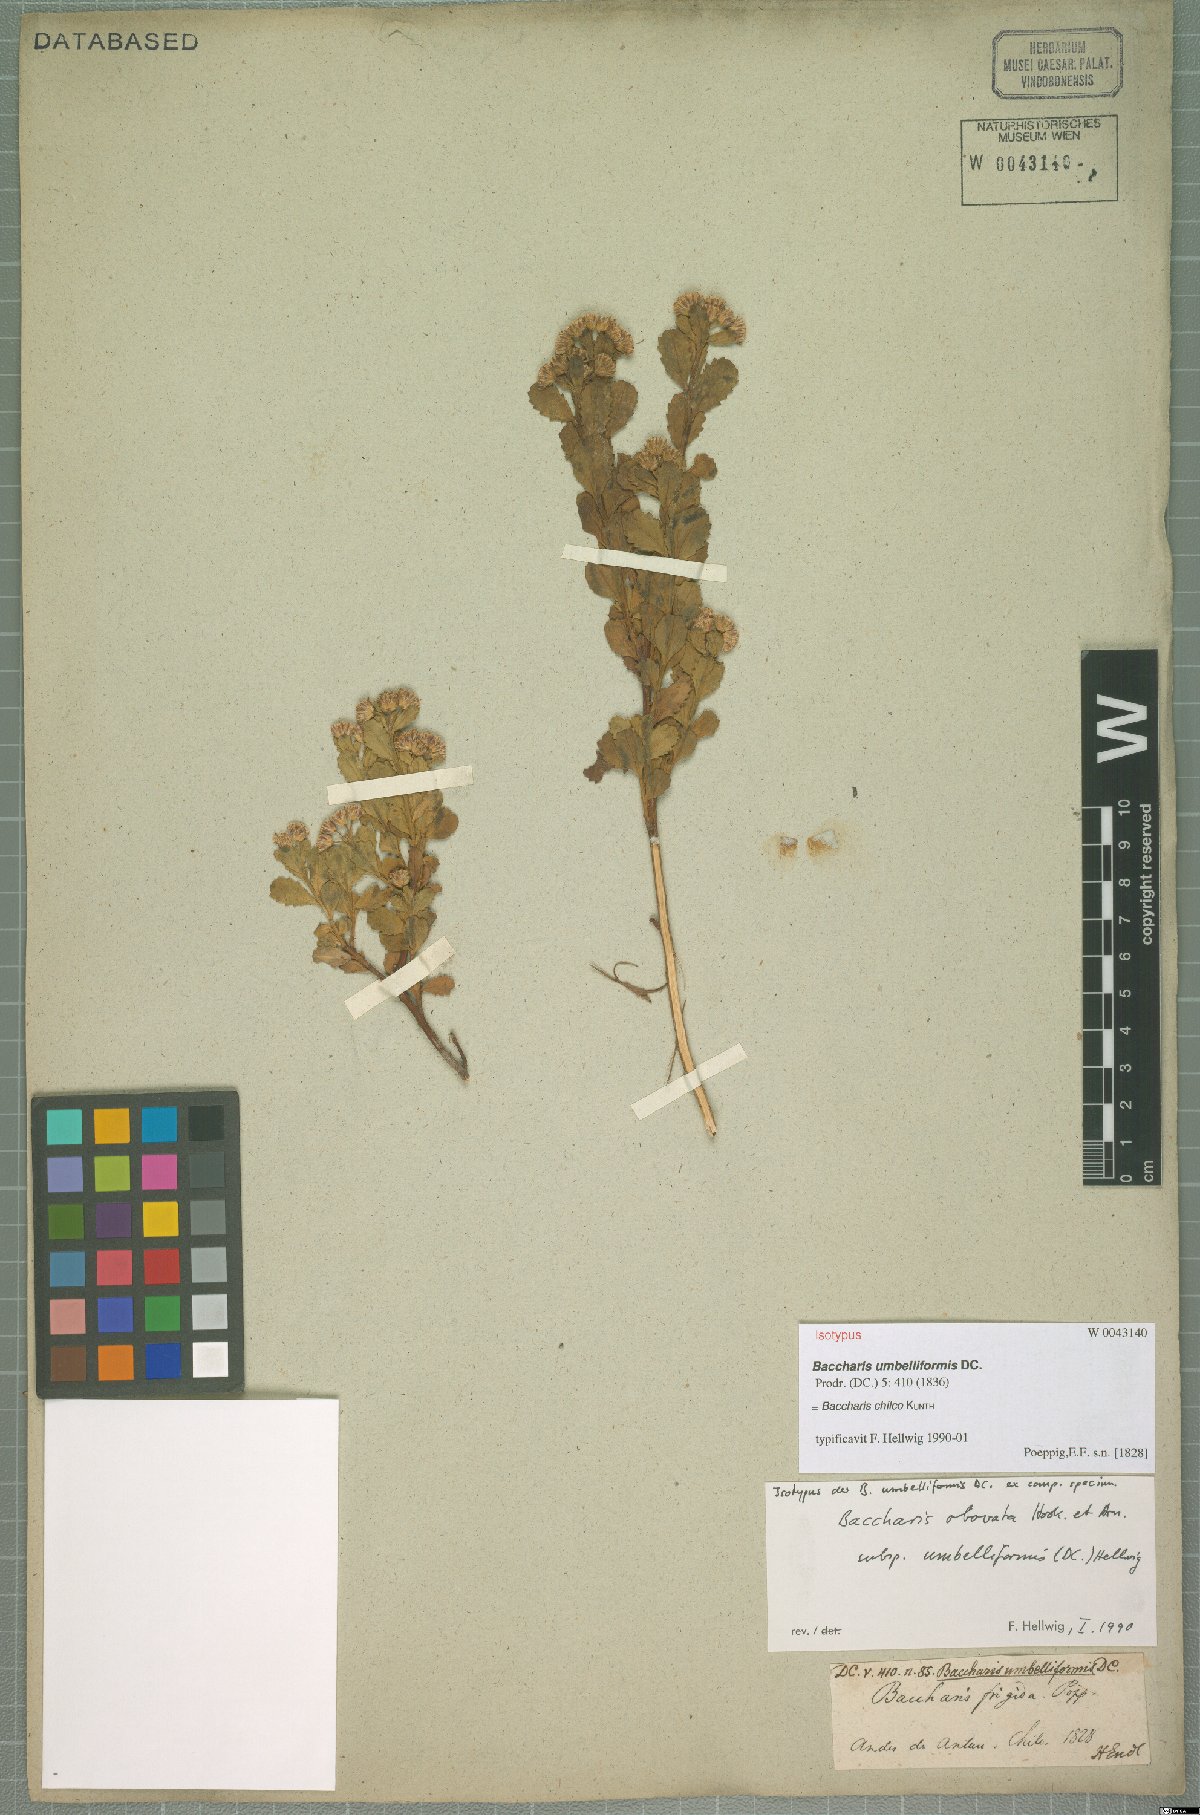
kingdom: Plantae
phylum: Tracheophyta
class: Magnoliopsida
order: Asterales
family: Asteraceae
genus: Baccharis
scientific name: Baccharis linearifolia
